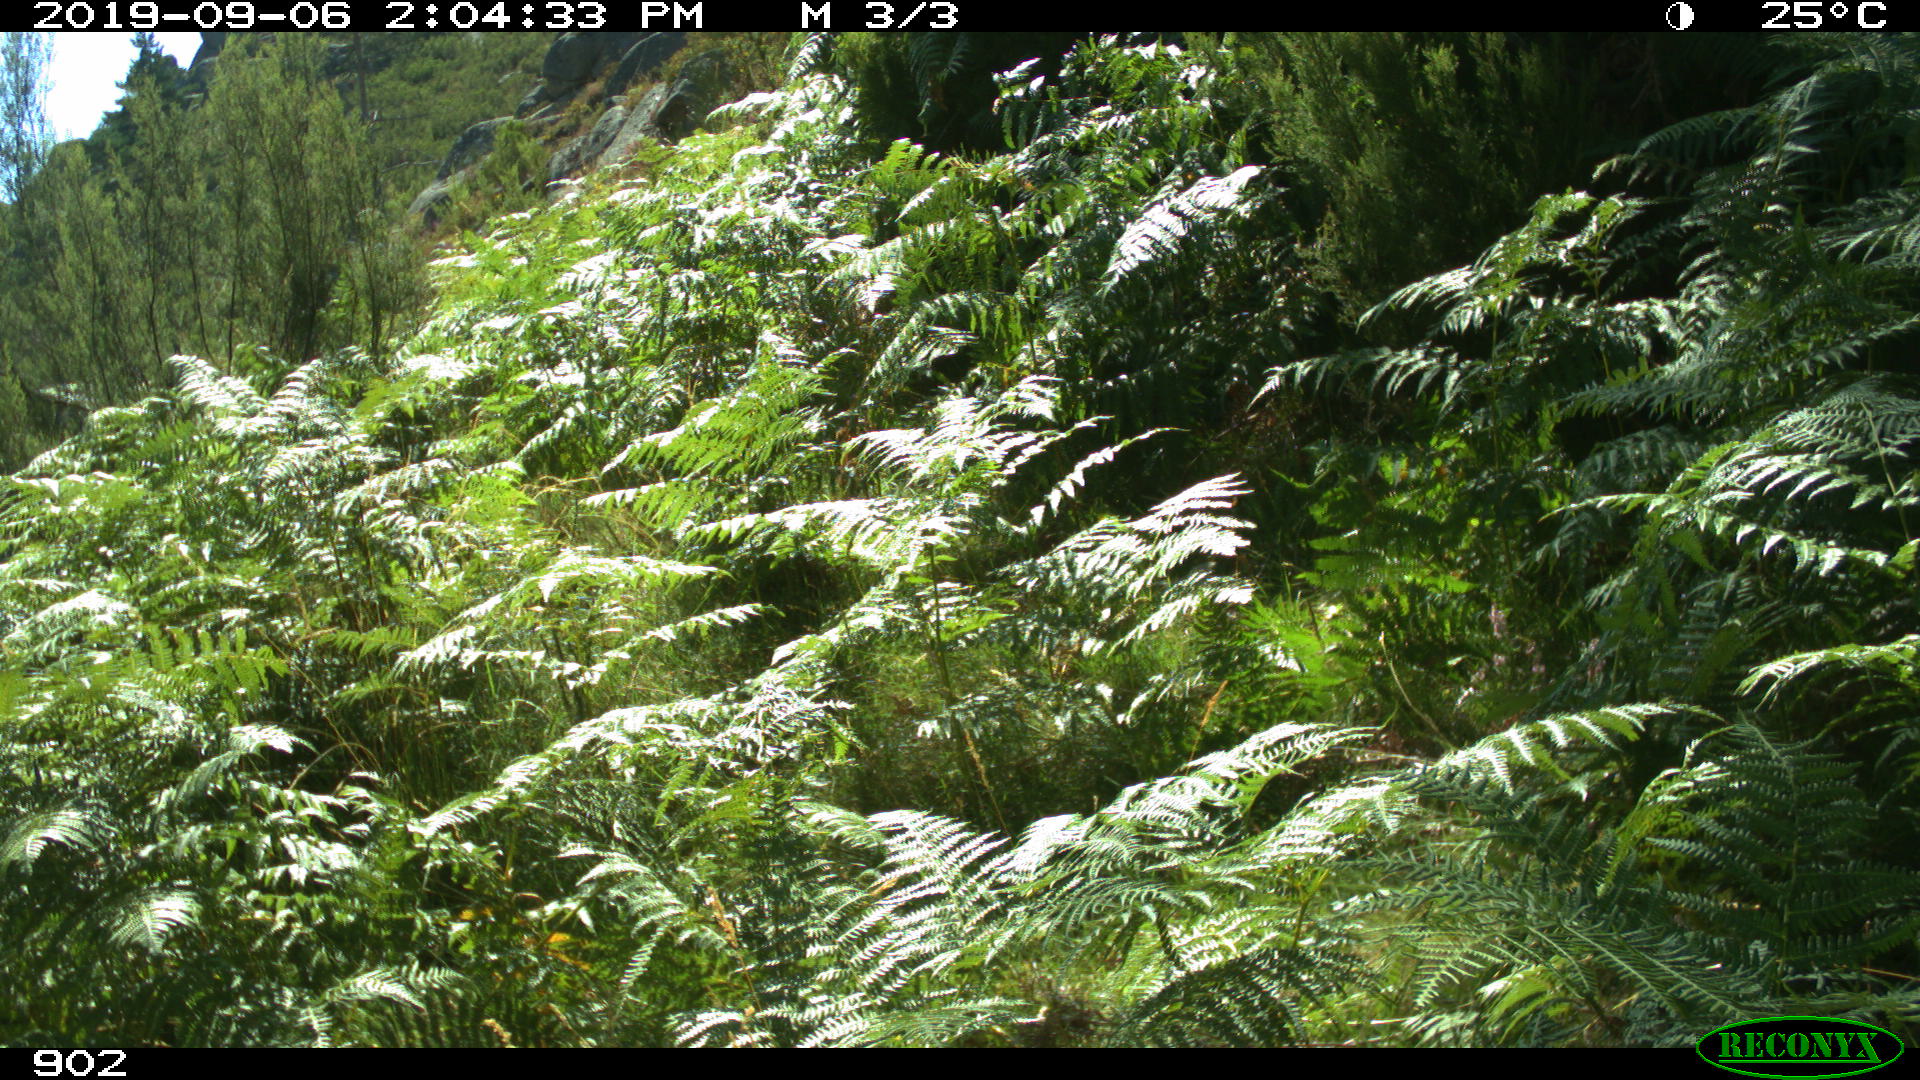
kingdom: Animalia
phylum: Chordata
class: Mammalia
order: Perissodactyla
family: Equidae
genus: Equus
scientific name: Equus caballus
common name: Horse
